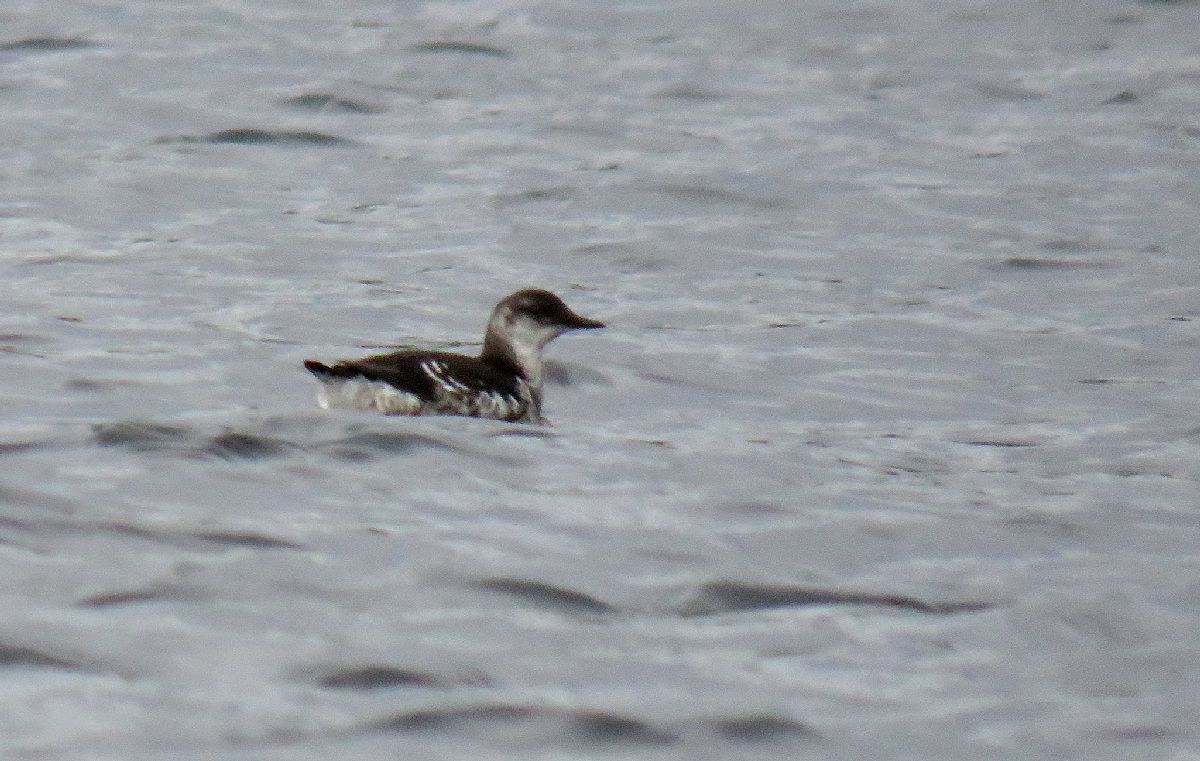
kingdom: Animalia
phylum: Chordata
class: Aves
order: Charadriiformes
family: Alcidae
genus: Cepphus
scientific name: Cepphus grylle
